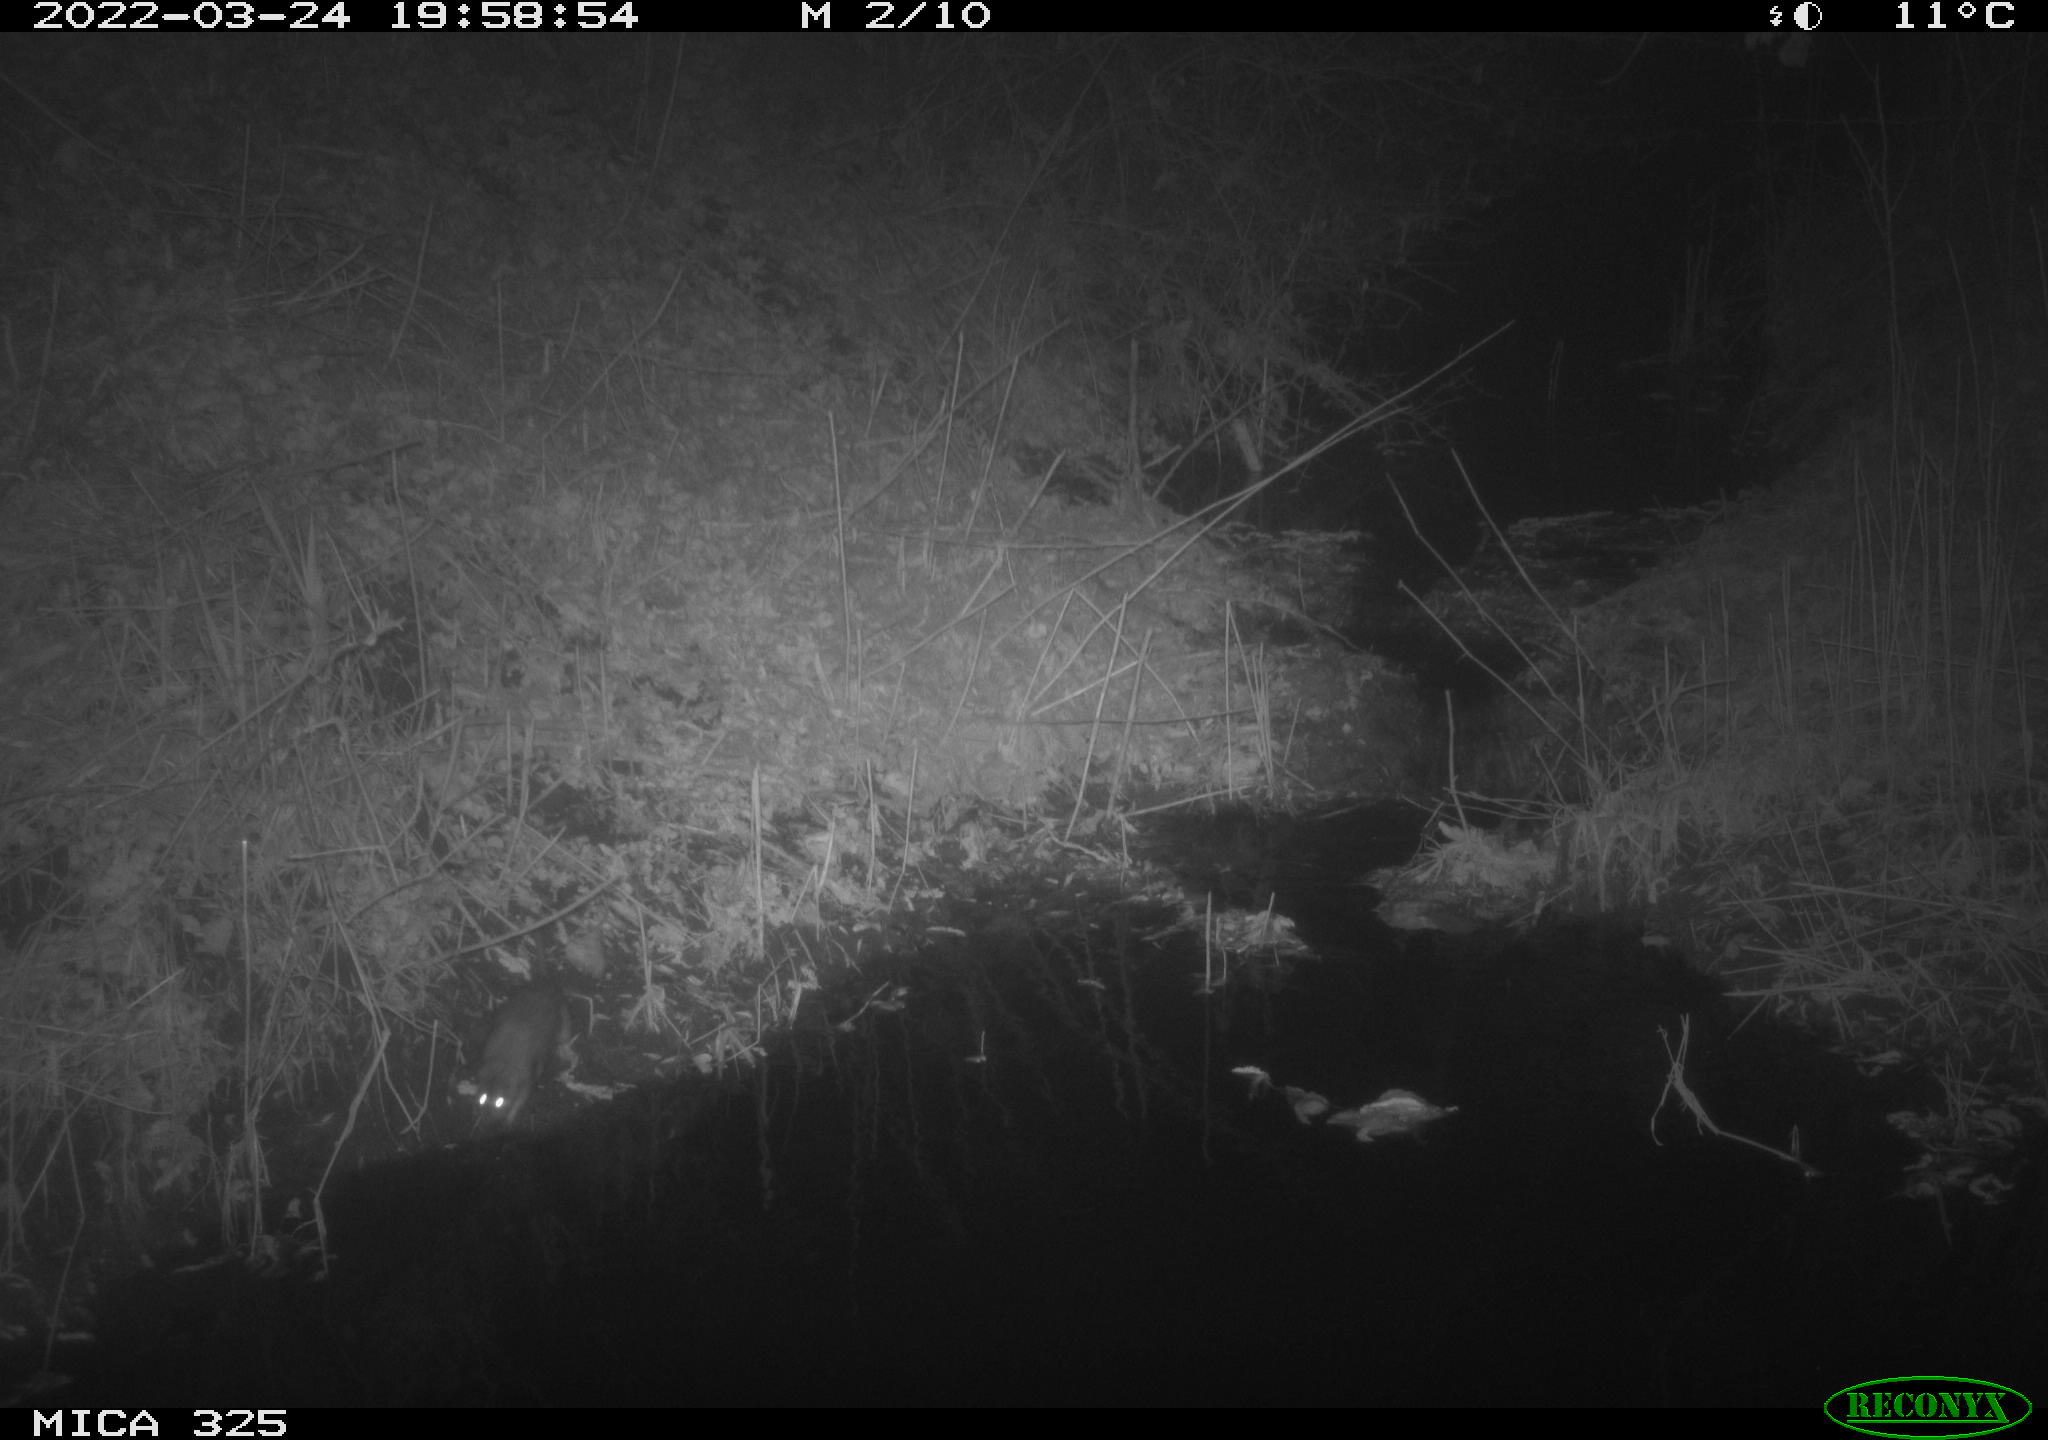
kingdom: Animalia
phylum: Chordata
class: Mammalia
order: Rodentia
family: Muridae
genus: Rattus
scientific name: Rattus norvegicus
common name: Brown rat
